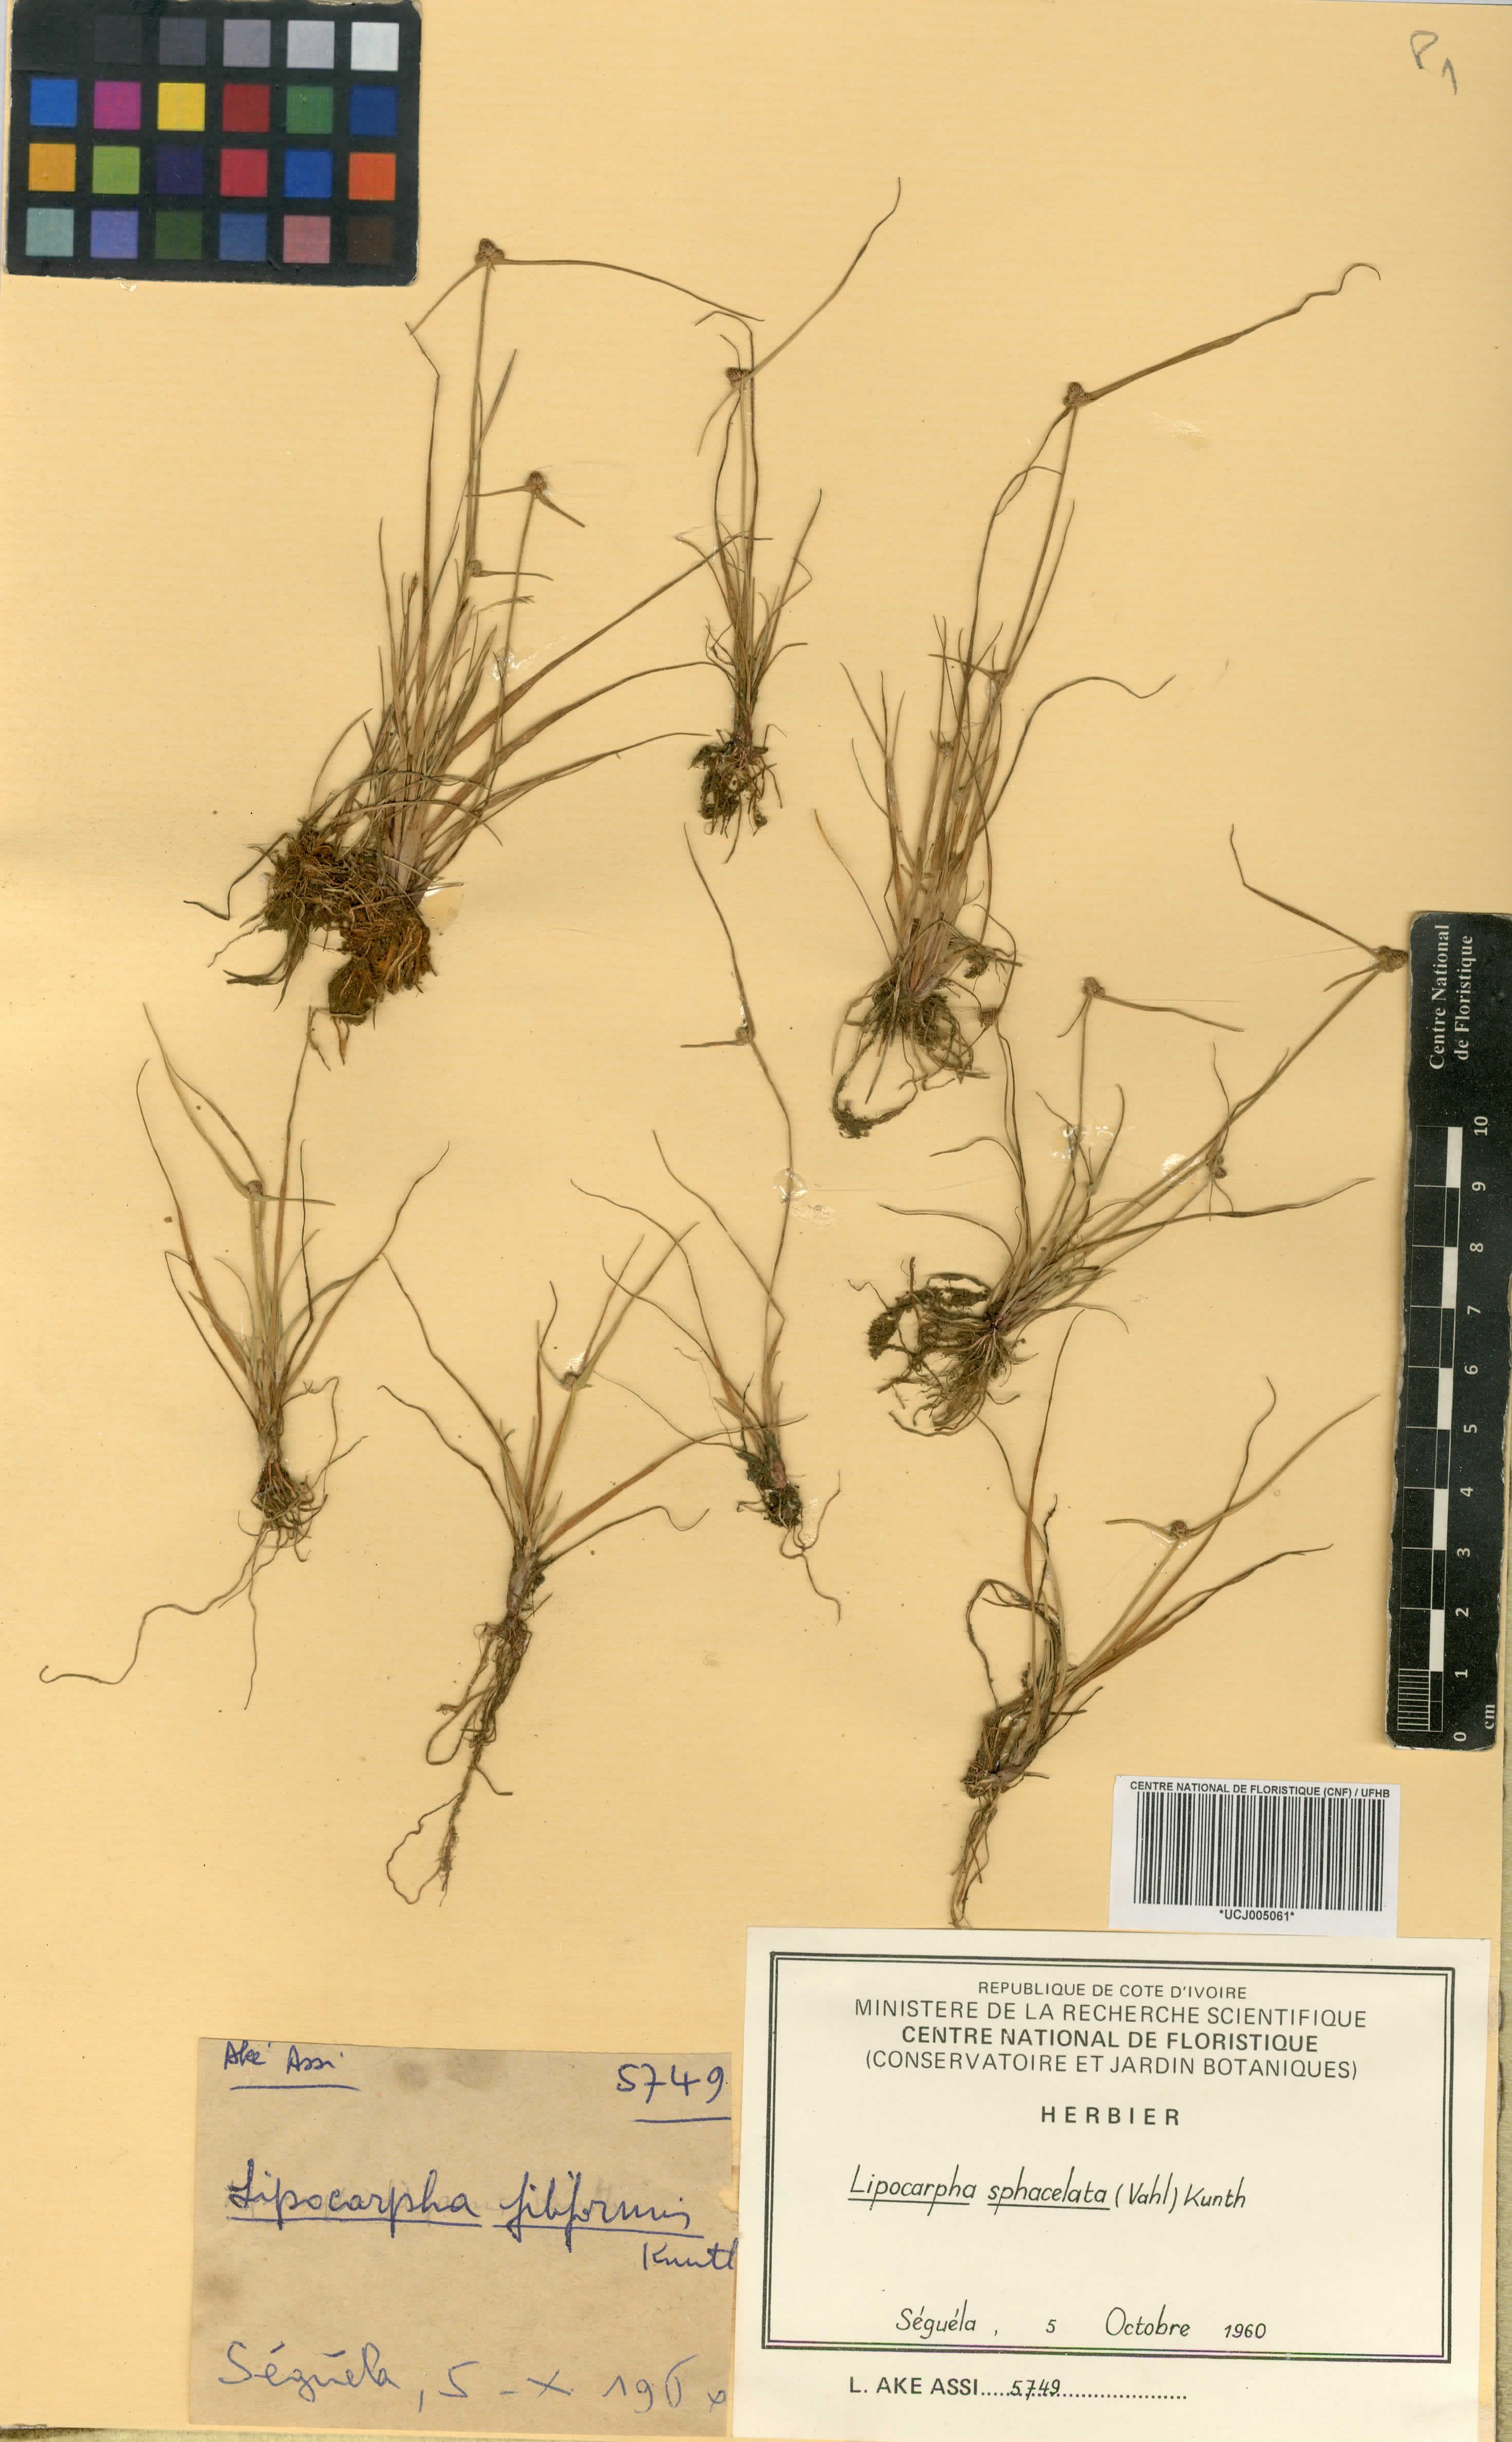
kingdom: Plantae
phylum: Tracheophyta
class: Liliopsida
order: Poales
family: Cyperaceae
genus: Cyperus
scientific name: Cyperus ceylanicus
